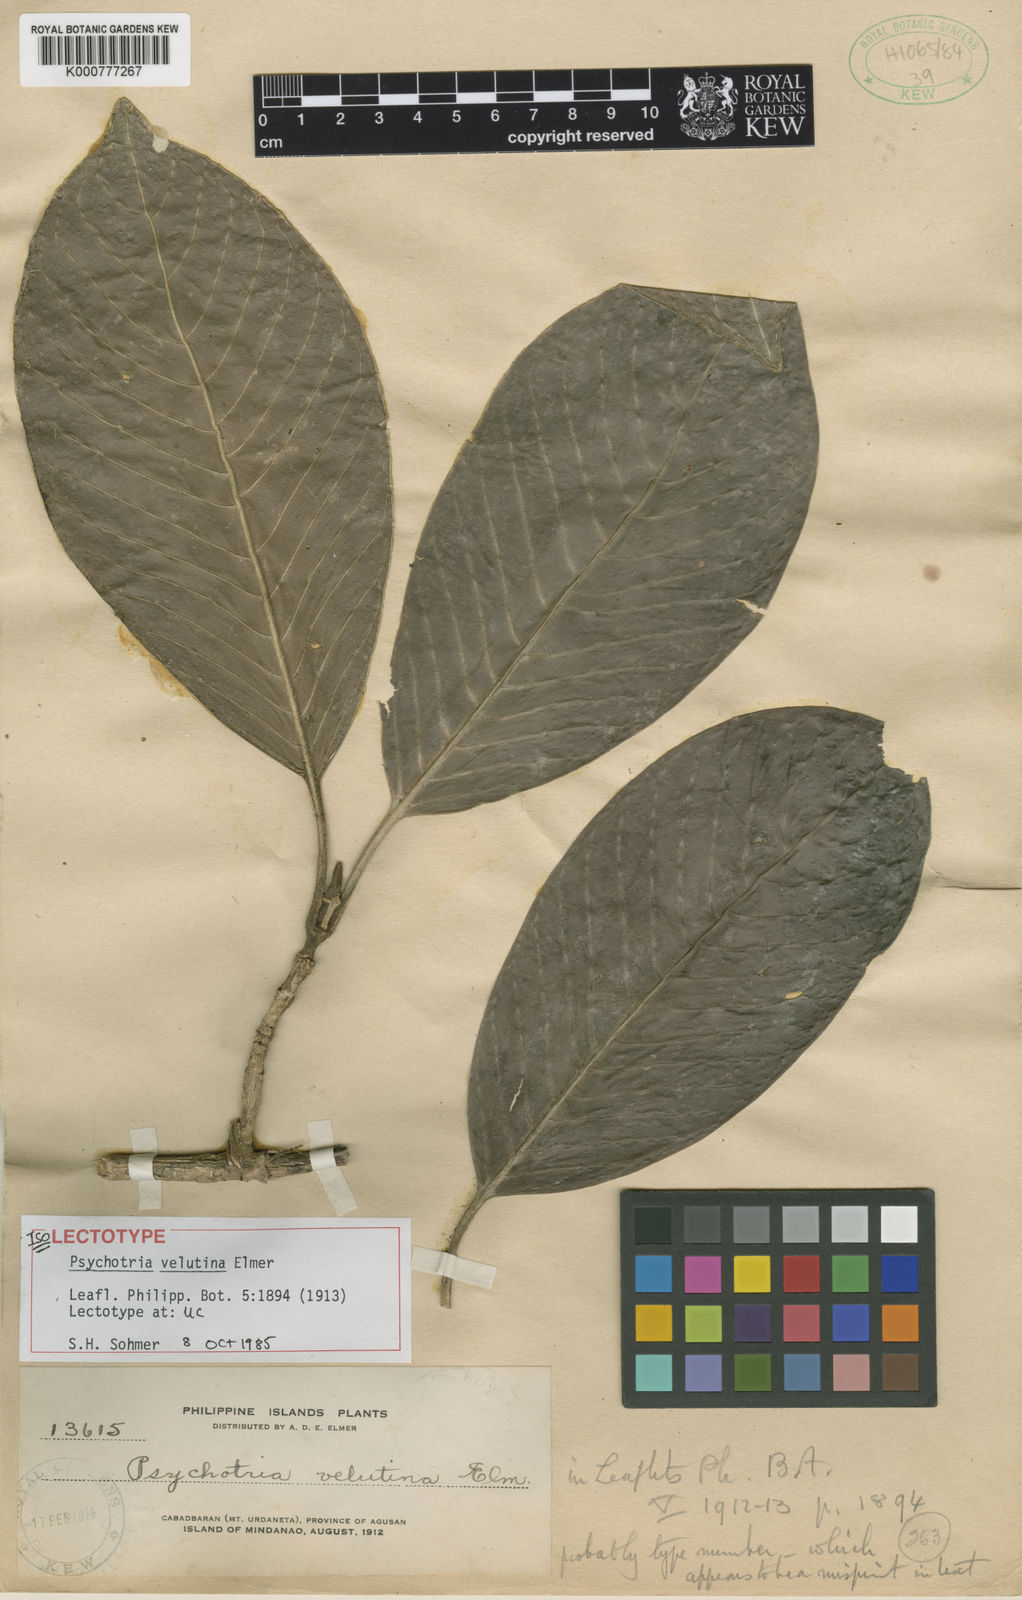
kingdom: Plantae
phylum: Tracheophyta
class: Magnoliopsida
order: Gentianales
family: Rubiaceae
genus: Psychotria
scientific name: Psychotria velutina
